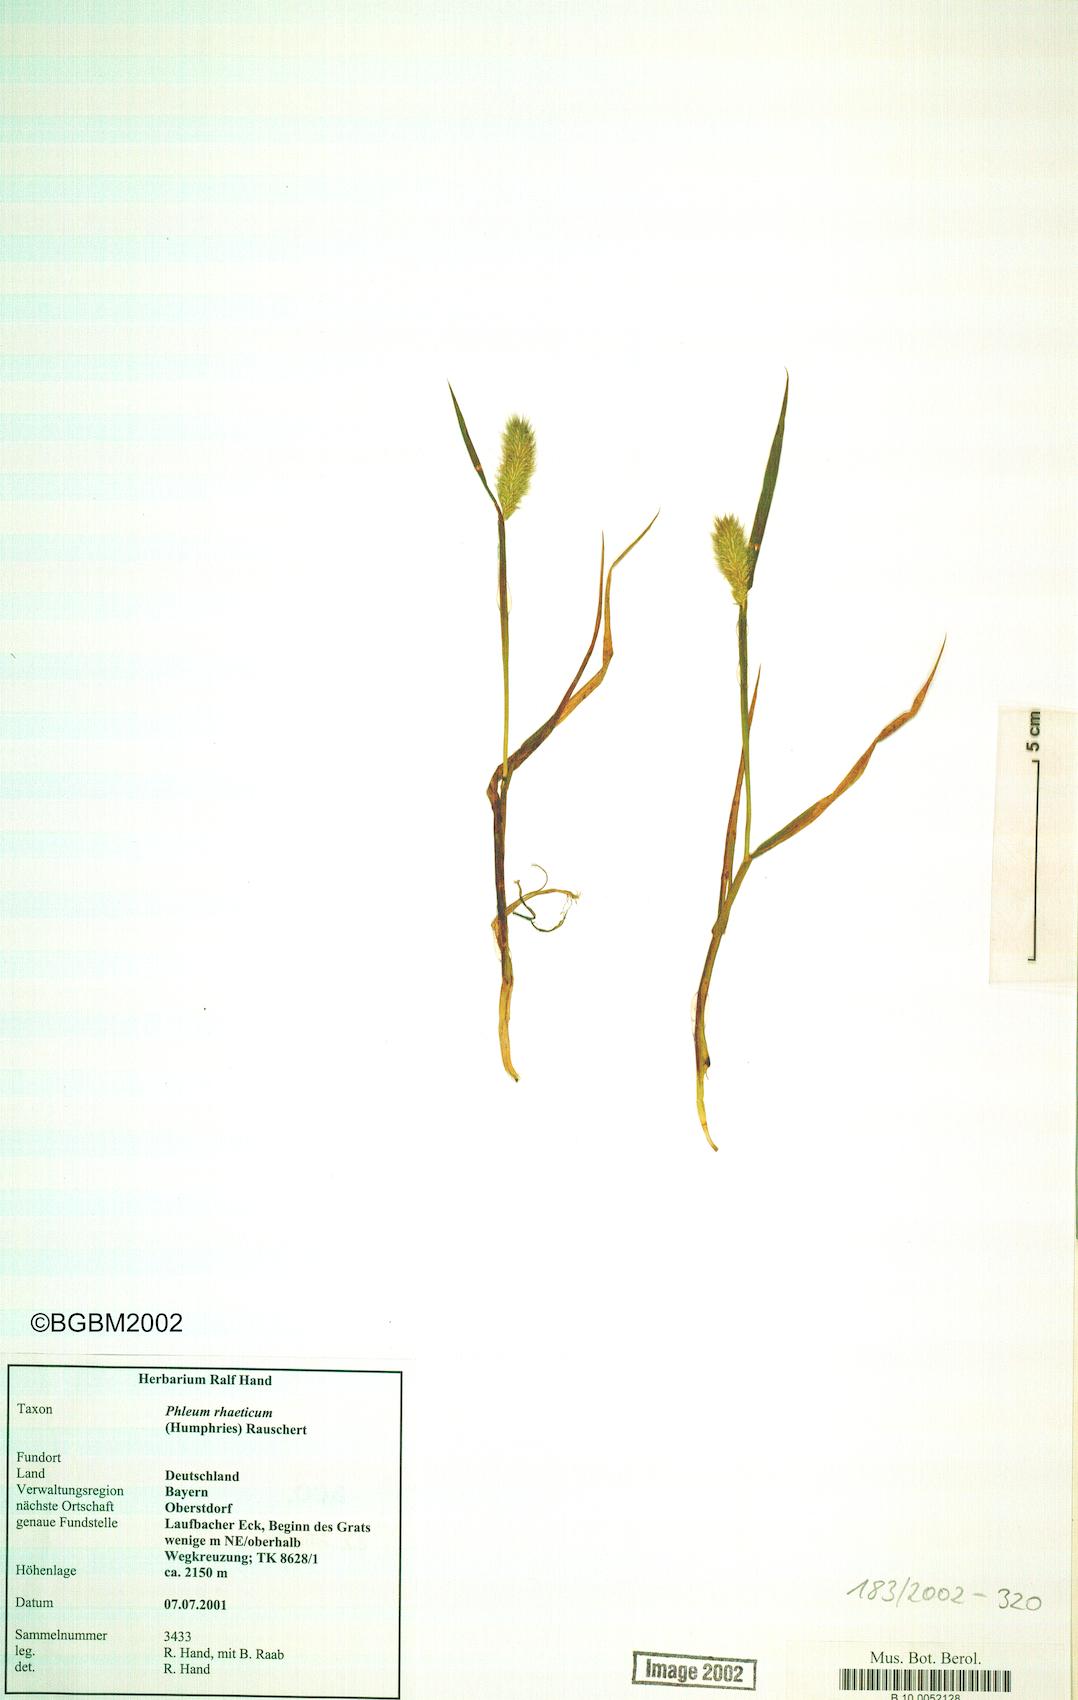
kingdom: Plantae
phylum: Tracheophyta
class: Liliopsida
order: Poales
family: Poaceae
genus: Phleum
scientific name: Phleum alpinum
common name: Alpine cat's-tail
